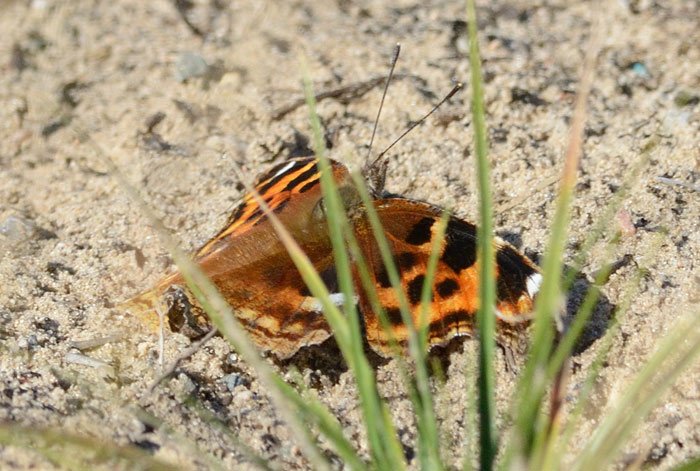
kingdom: Animalia
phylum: Arthropoda
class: Insecta
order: Lepidoptera
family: Nymphalidae
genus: Polygonia
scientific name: Polygonia vaualbum
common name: Compton Tortoiseshell
